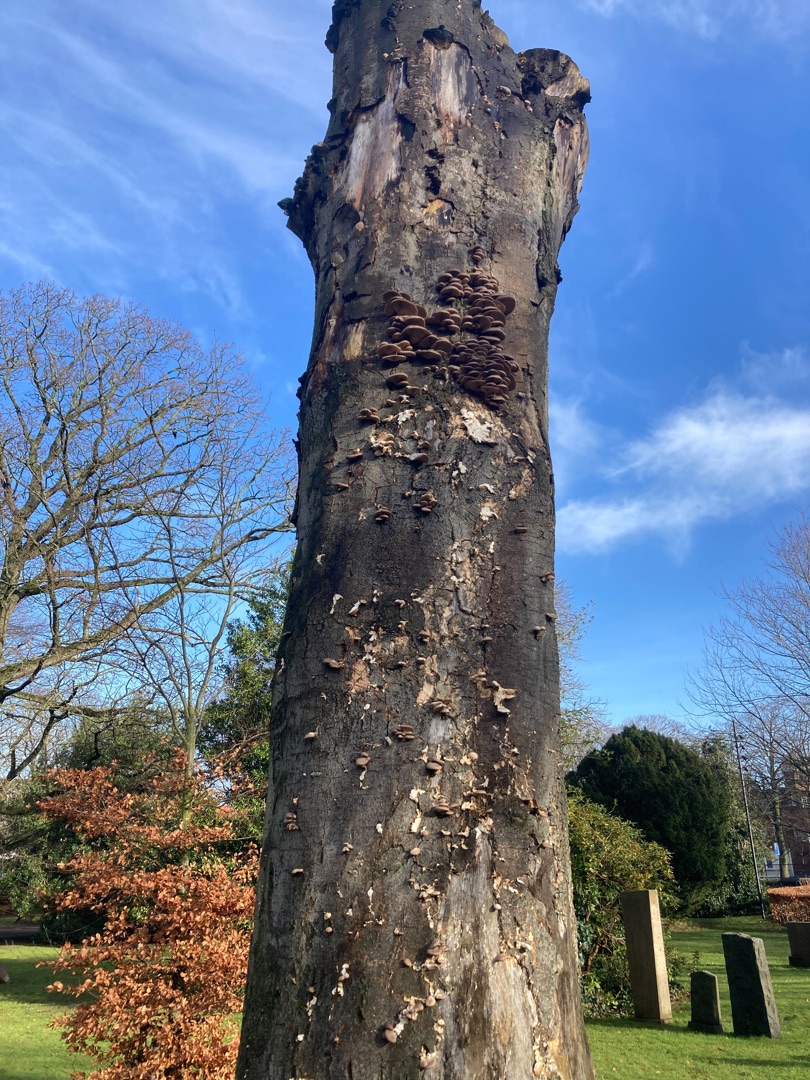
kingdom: Fungi
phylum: Basidiomycota
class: Agaricomycetes
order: Agaricales
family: Pleurotaceae
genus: Pleurotus
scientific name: Pleurotus
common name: Østershat
